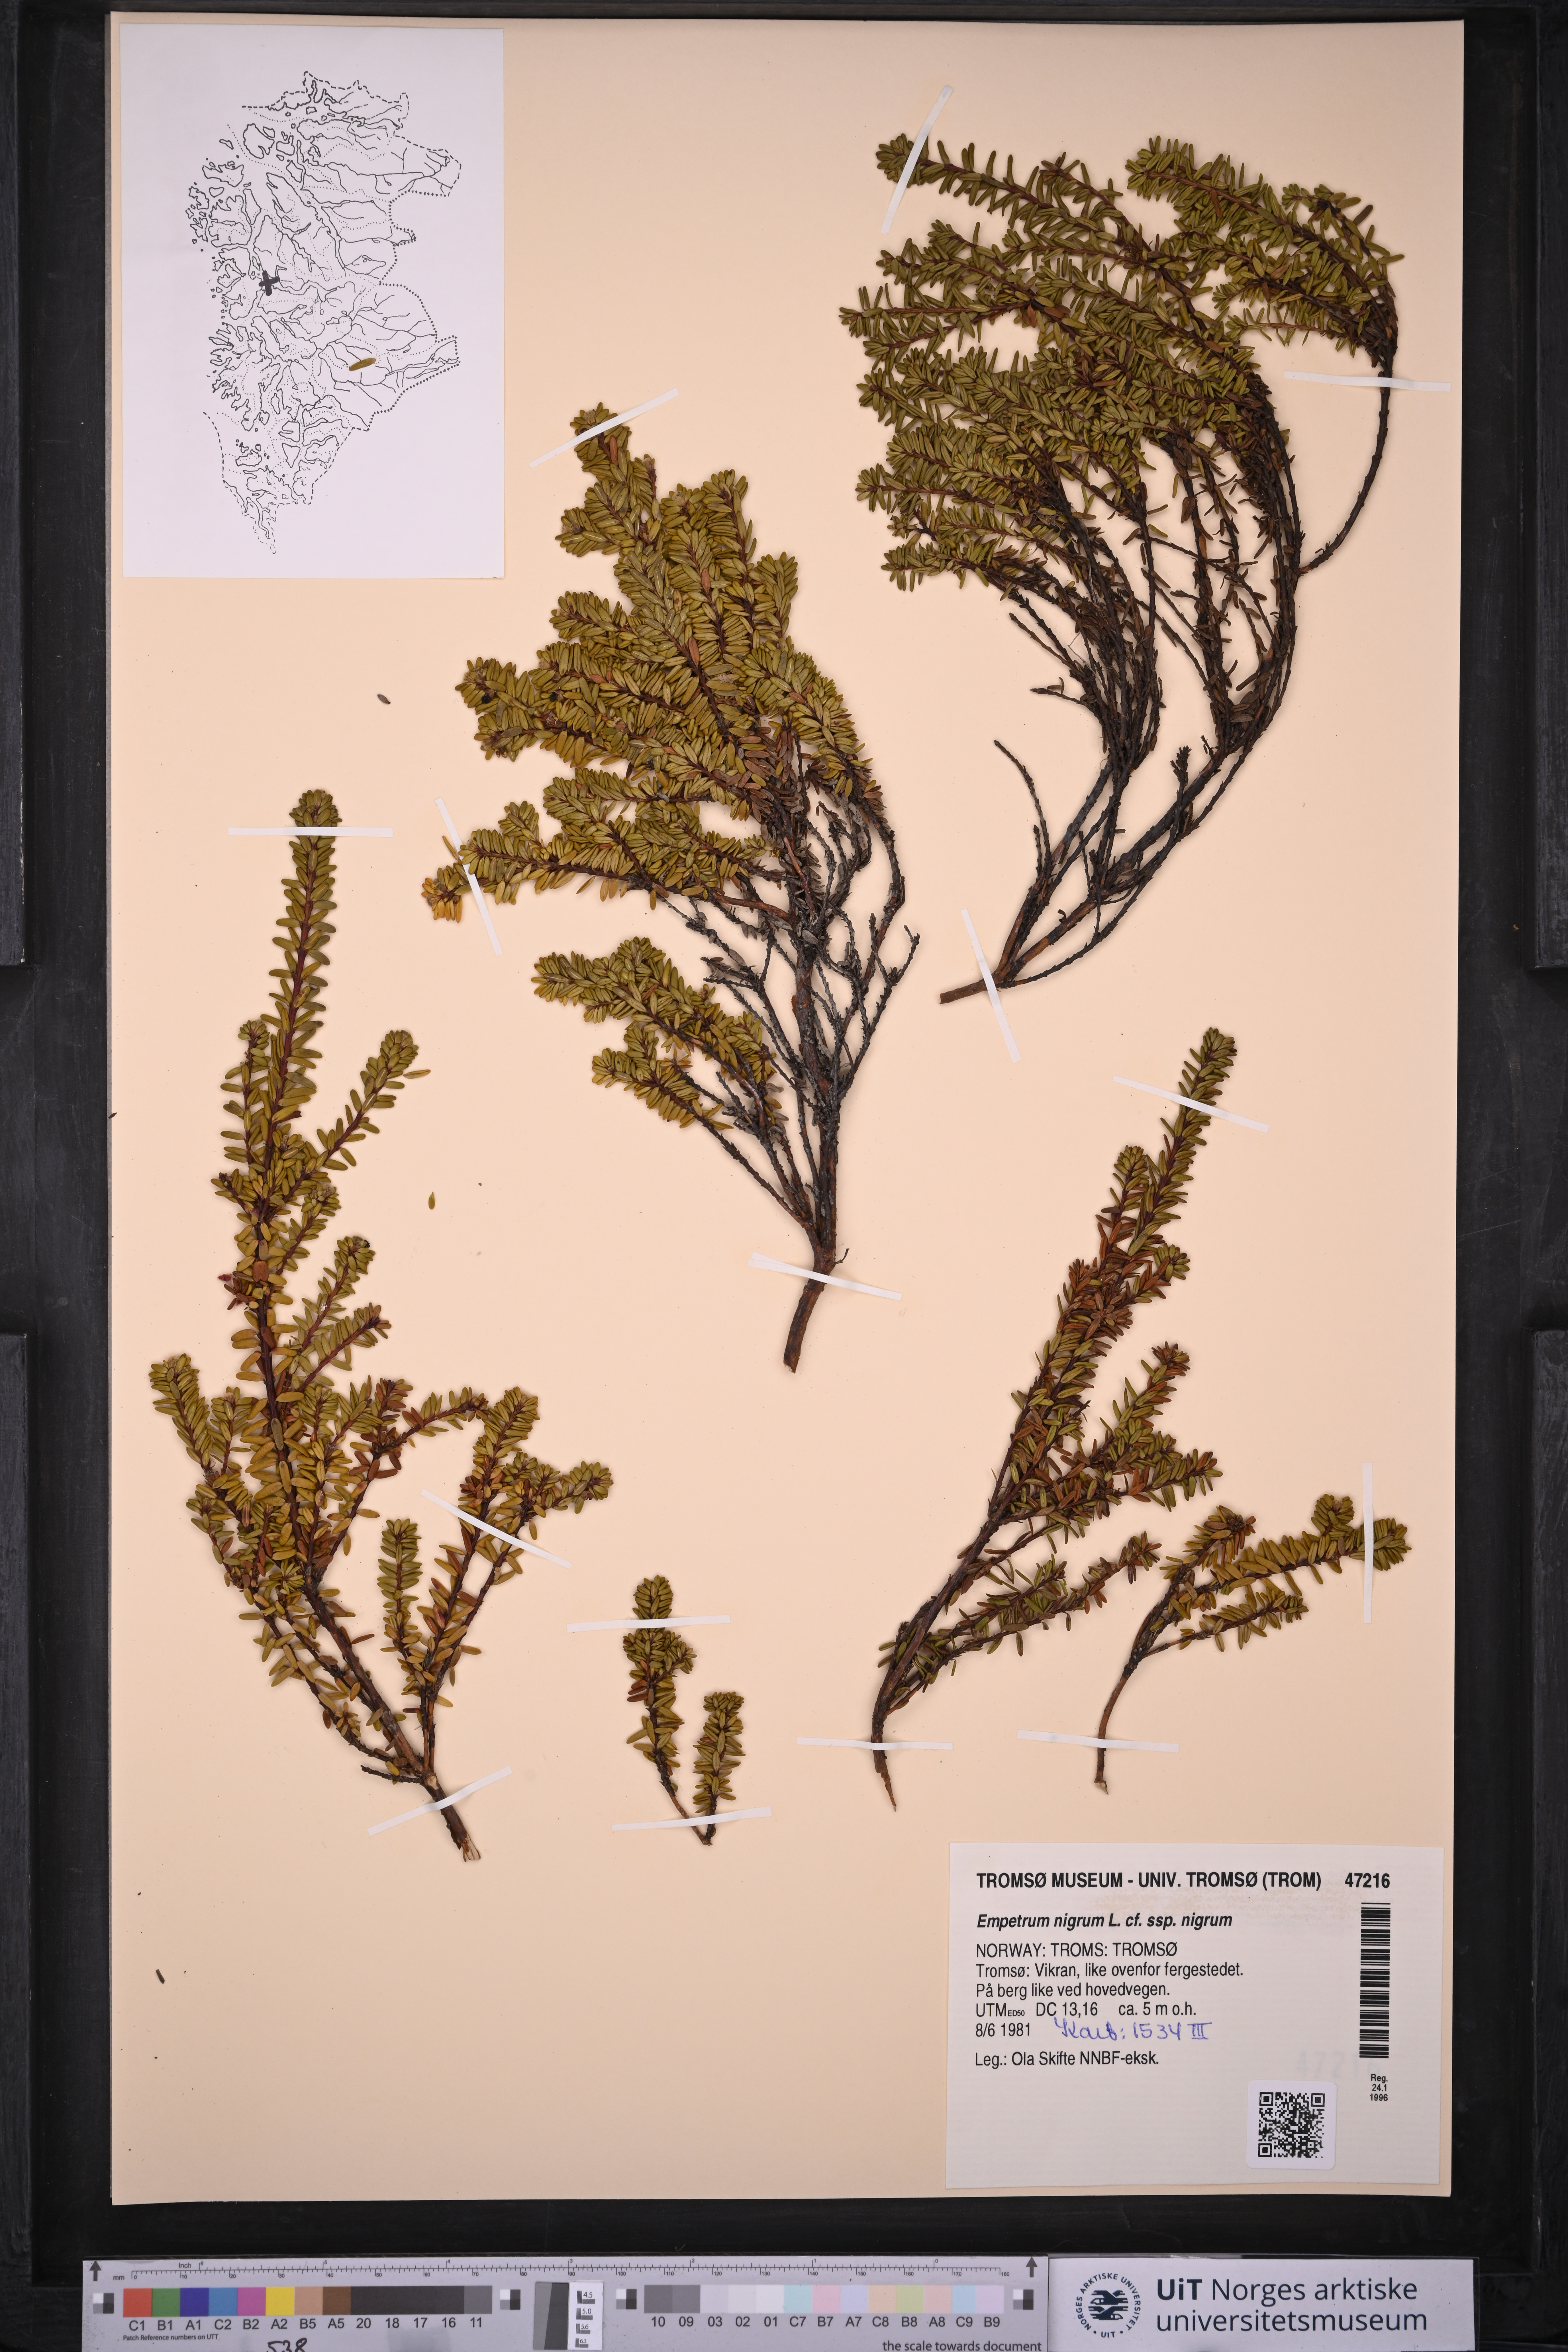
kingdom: Plantae
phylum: Tracheophyta
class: Magnoliopsida
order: Ericales
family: Ericaceae
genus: Empetrum
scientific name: Empetrum nigrum
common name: Black crowberry
